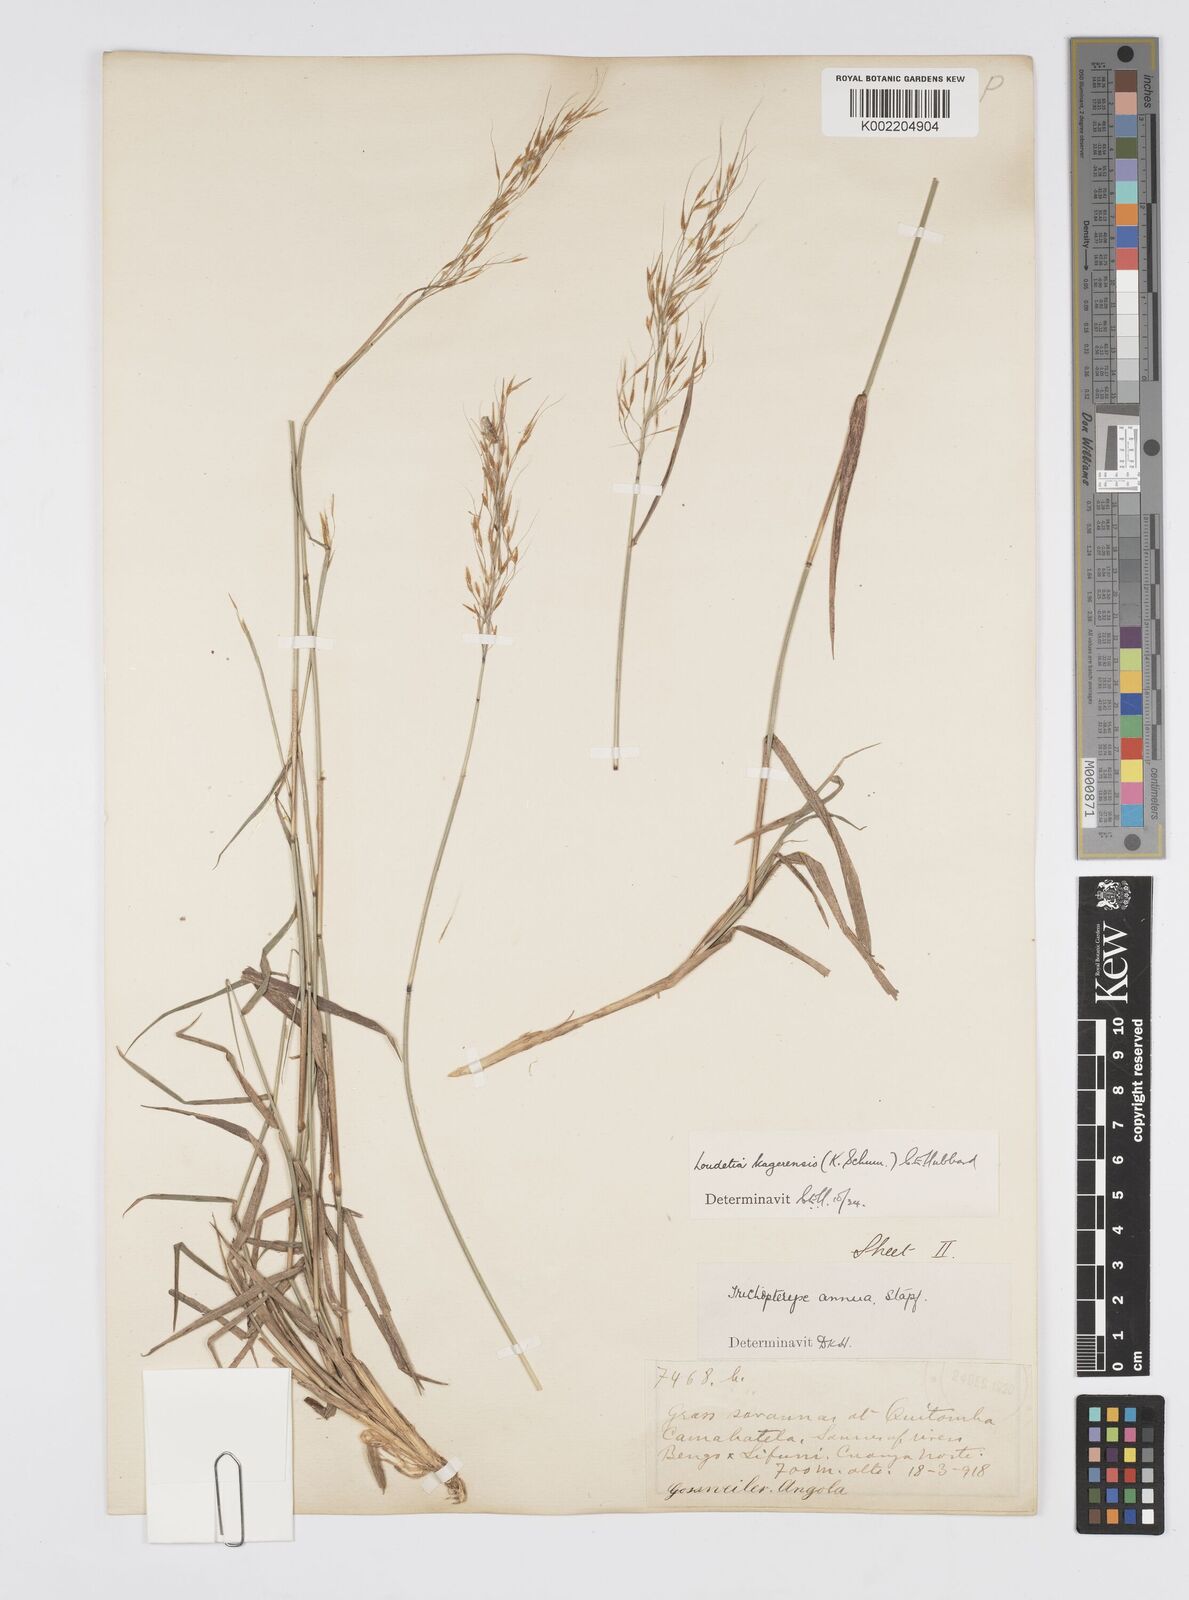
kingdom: Plantae
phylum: Tracheophyta
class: Liliopsida
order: Poales
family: Poaceae
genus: Loudetia
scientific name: Loudetia kagerensis
